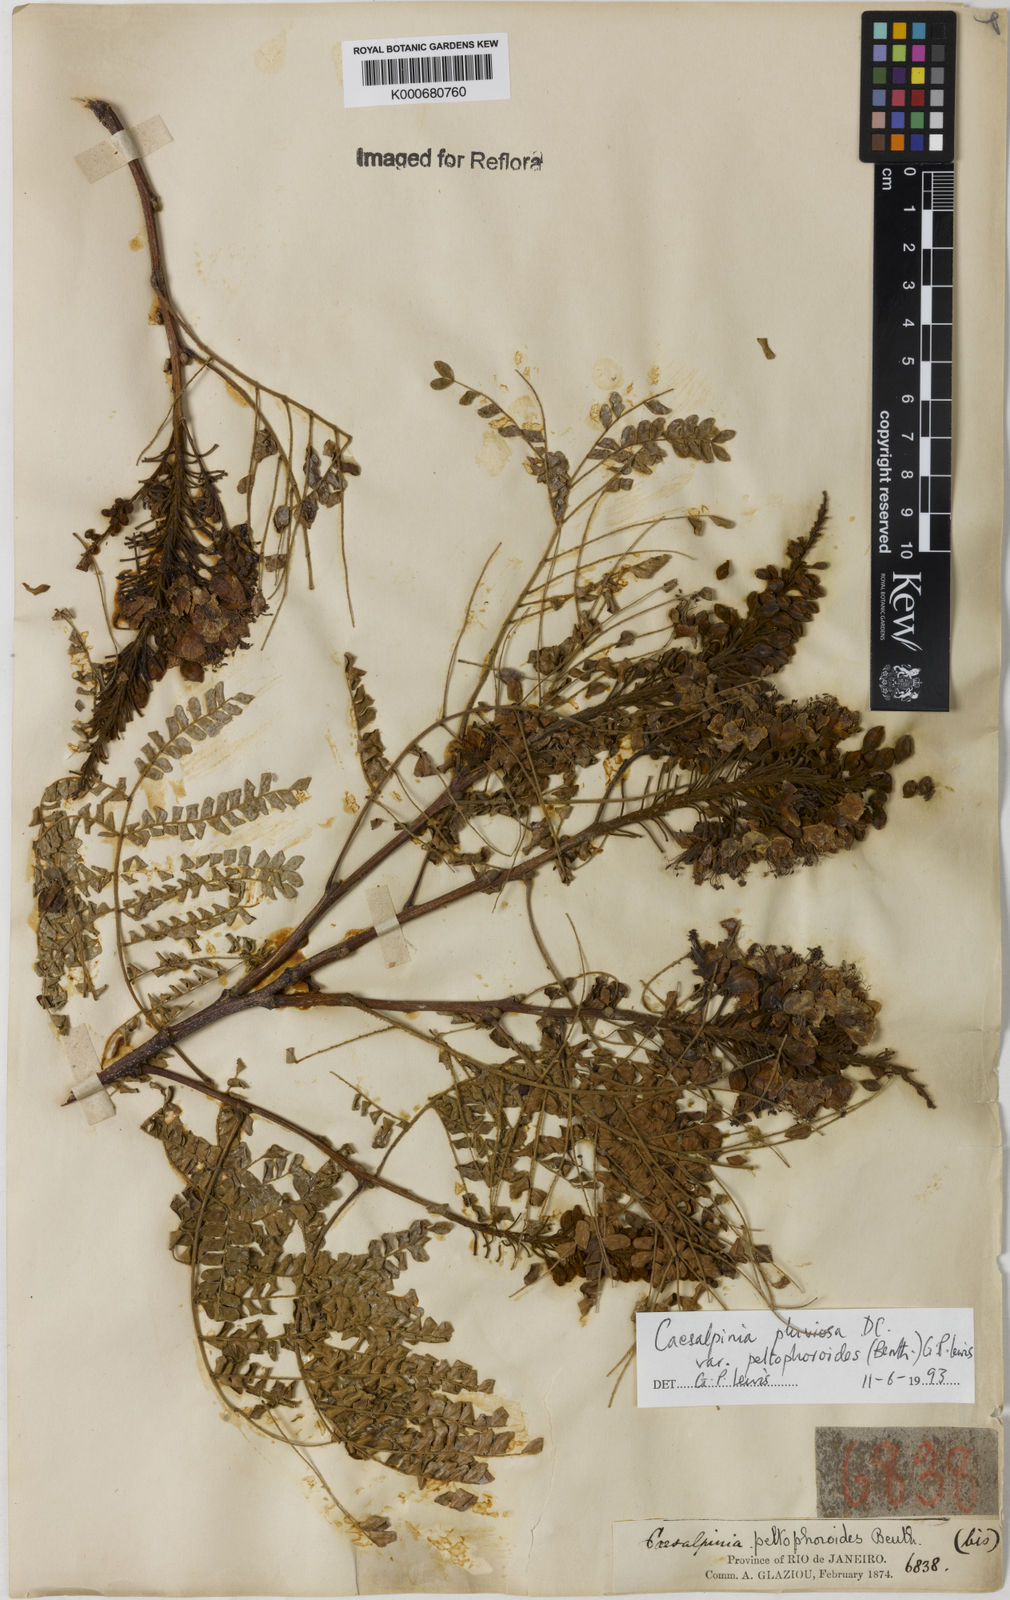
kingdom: Plantae
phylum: Tracheophyta
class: Magnoliopsida
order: Fabales
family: Fabaceae
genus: Cenostigma
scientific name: Cenostigma pluviosum
